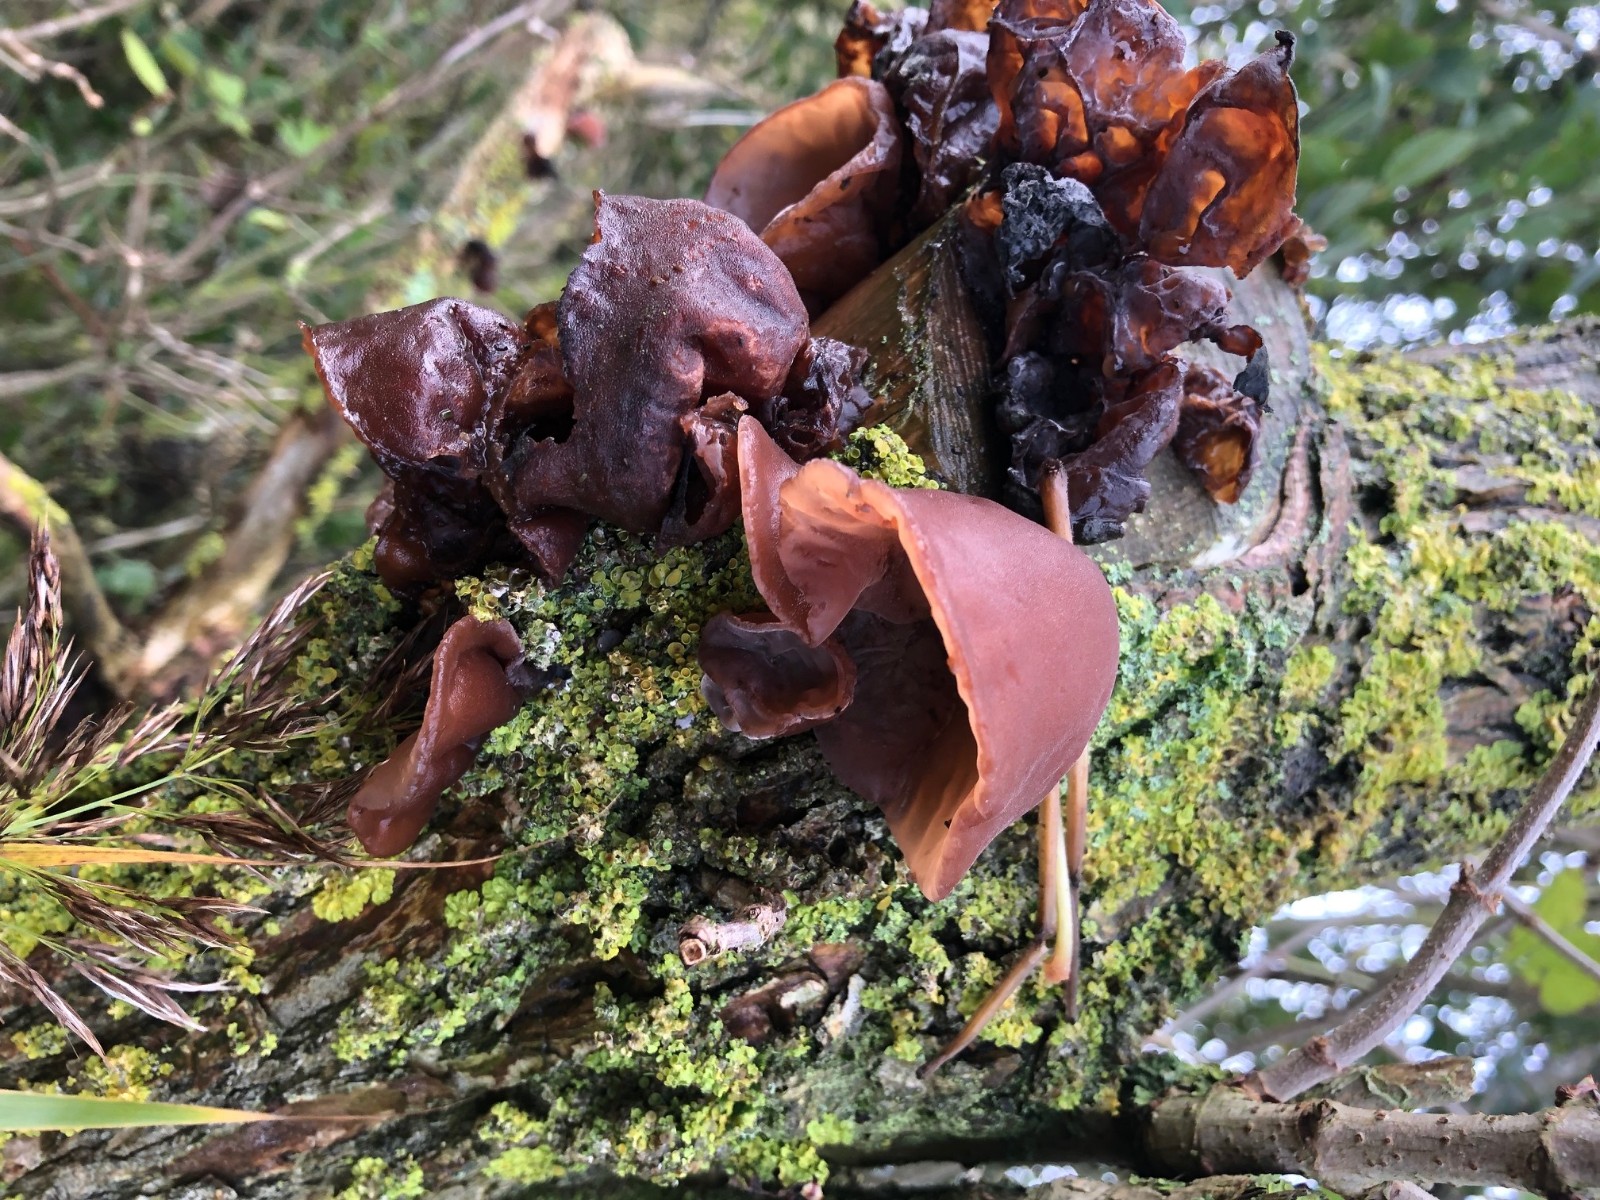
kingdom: Fungi
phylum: Basidiomycota
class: Agaricomycetes
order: Auriculariales
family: Auriculariaceae
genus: Auricularia
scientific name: Auricularia auricula-judae
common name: almindelig judasøre
